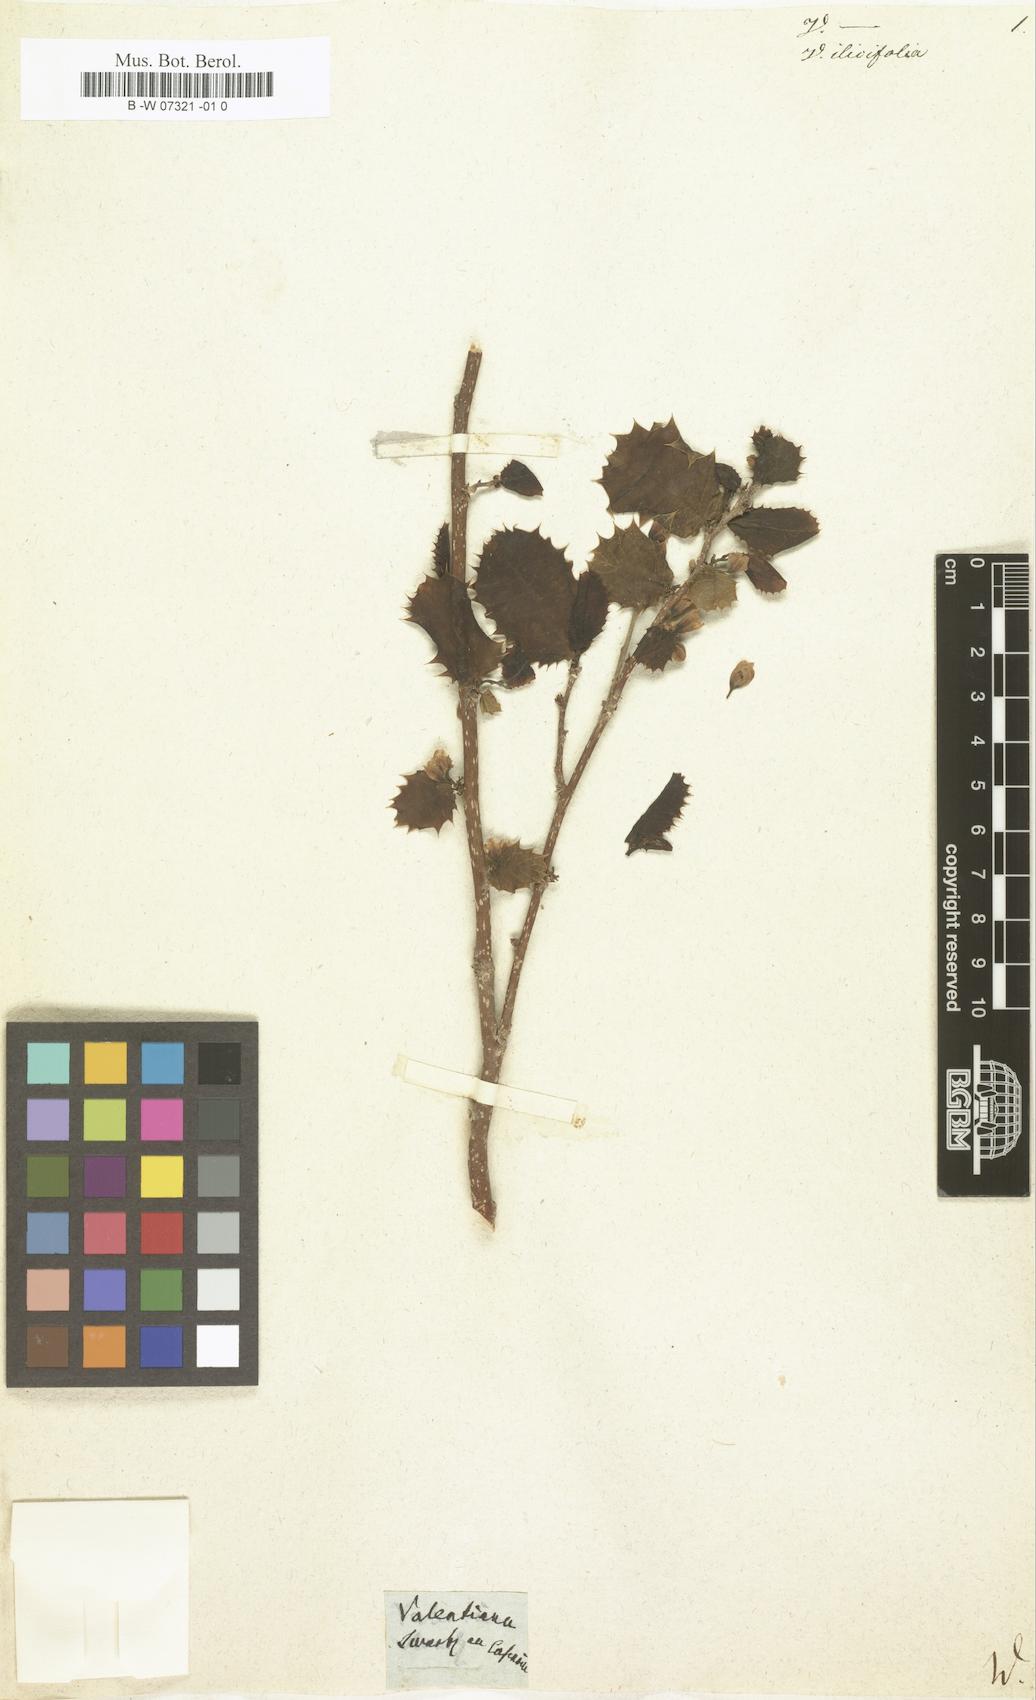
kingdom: Plantae
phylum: Tracheophyta
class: Magnoliopsida
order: Malpighiales
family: Salicaceae
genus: Casearia
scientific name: Casearia ilicifolia
